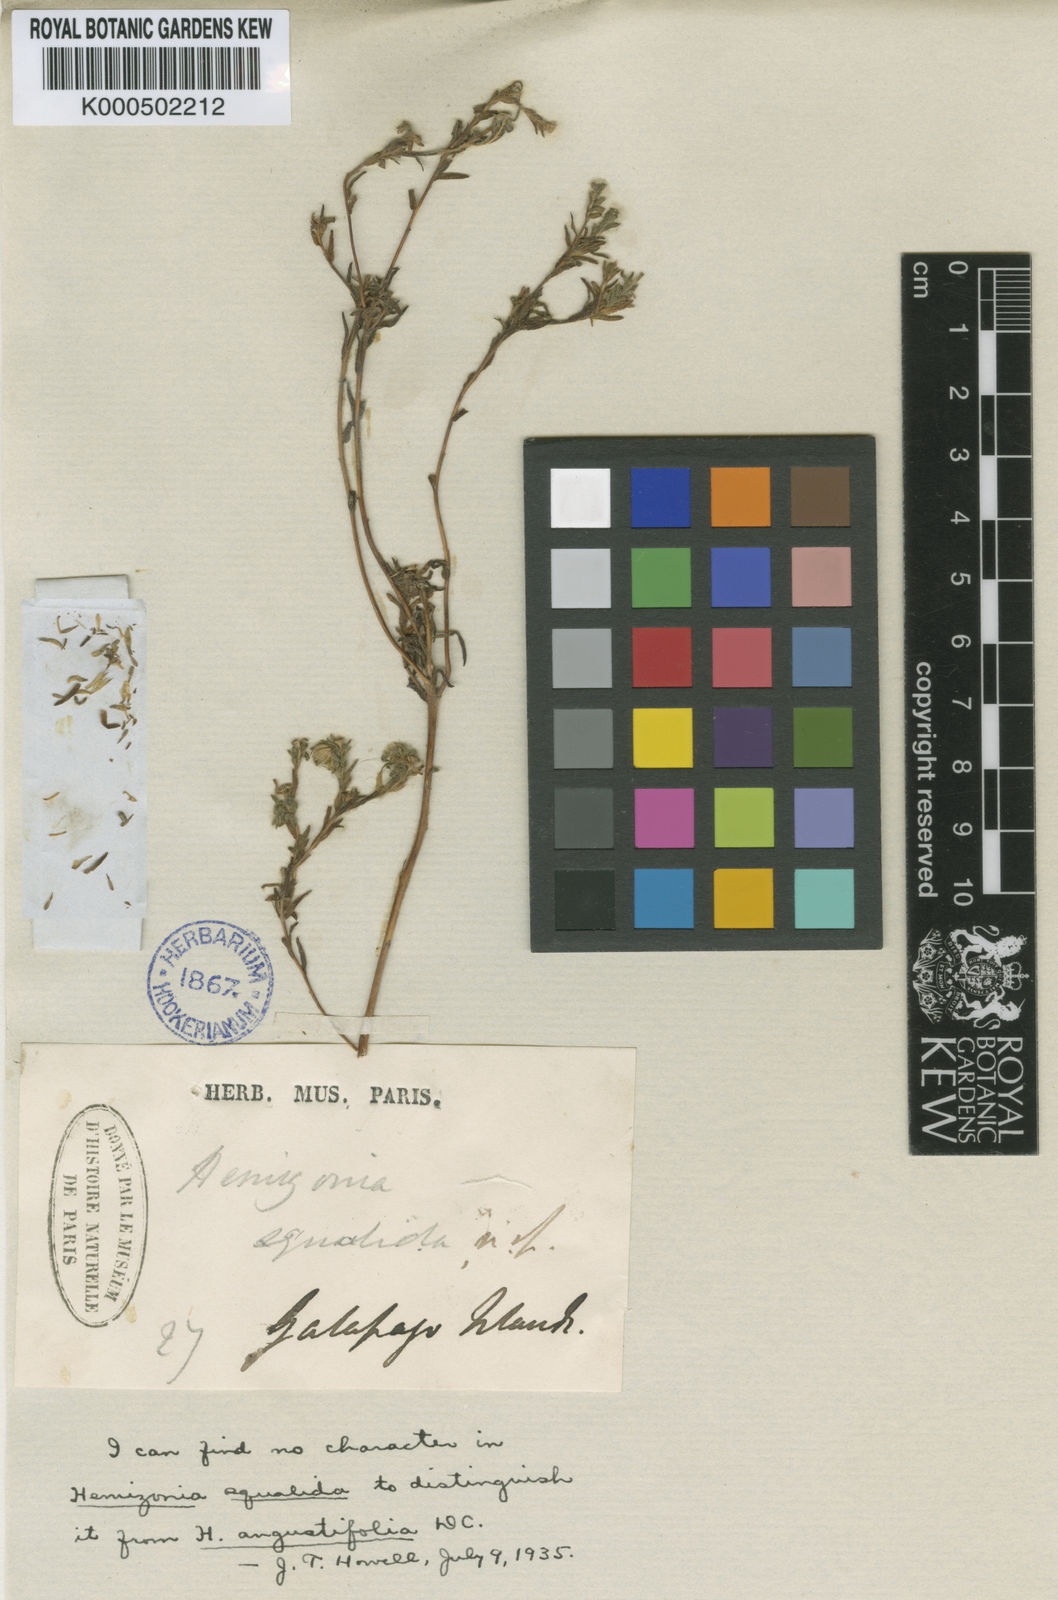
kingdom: Plantae
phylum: Tracheophyta
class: Magnoliopsida
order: Asterales
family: Asteraceae
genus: Hemizonia
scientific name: Hemizonia congesta
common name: Hayfield tarweed
